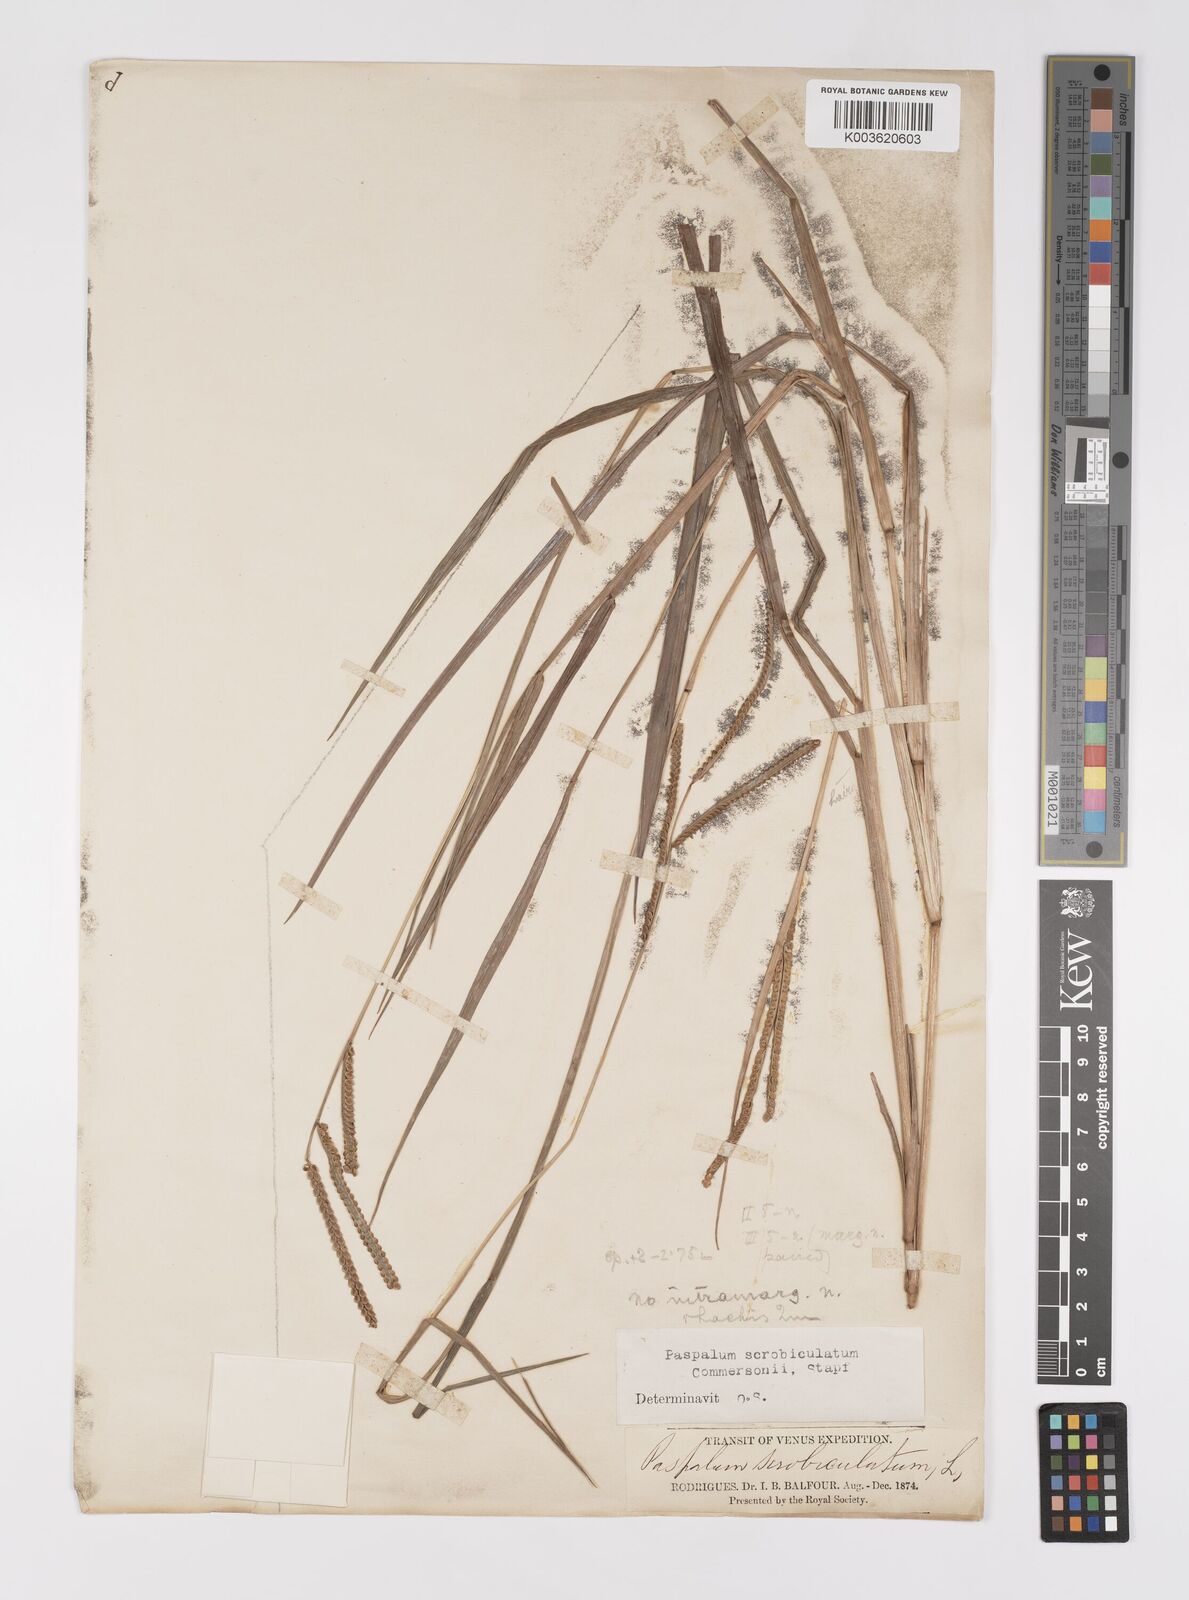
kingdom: Plantae
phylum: Tracheophyta
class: Liliopsida
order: Poales
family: Poaceae
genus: Paspalum
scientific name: Paspalum scrobiculatum
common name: Kodo millet
